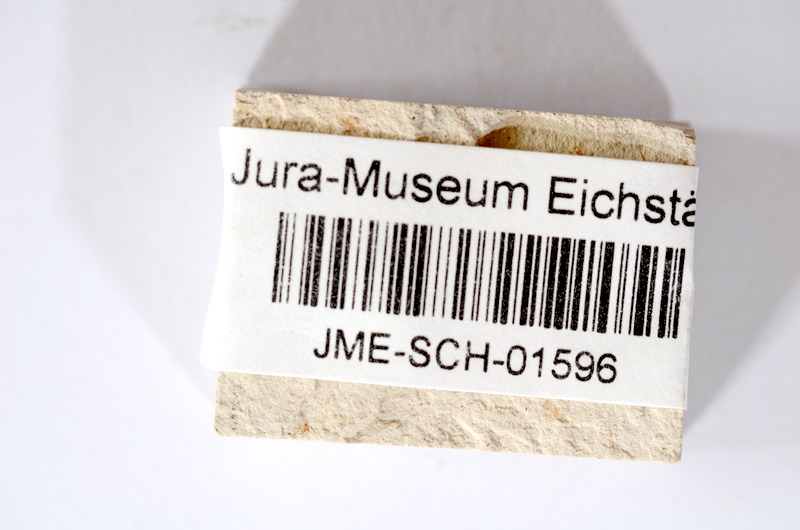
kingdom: Animalia
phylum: Chordata
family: Ascalaboidae
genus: Tharsis
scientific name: Tharsis dubius
